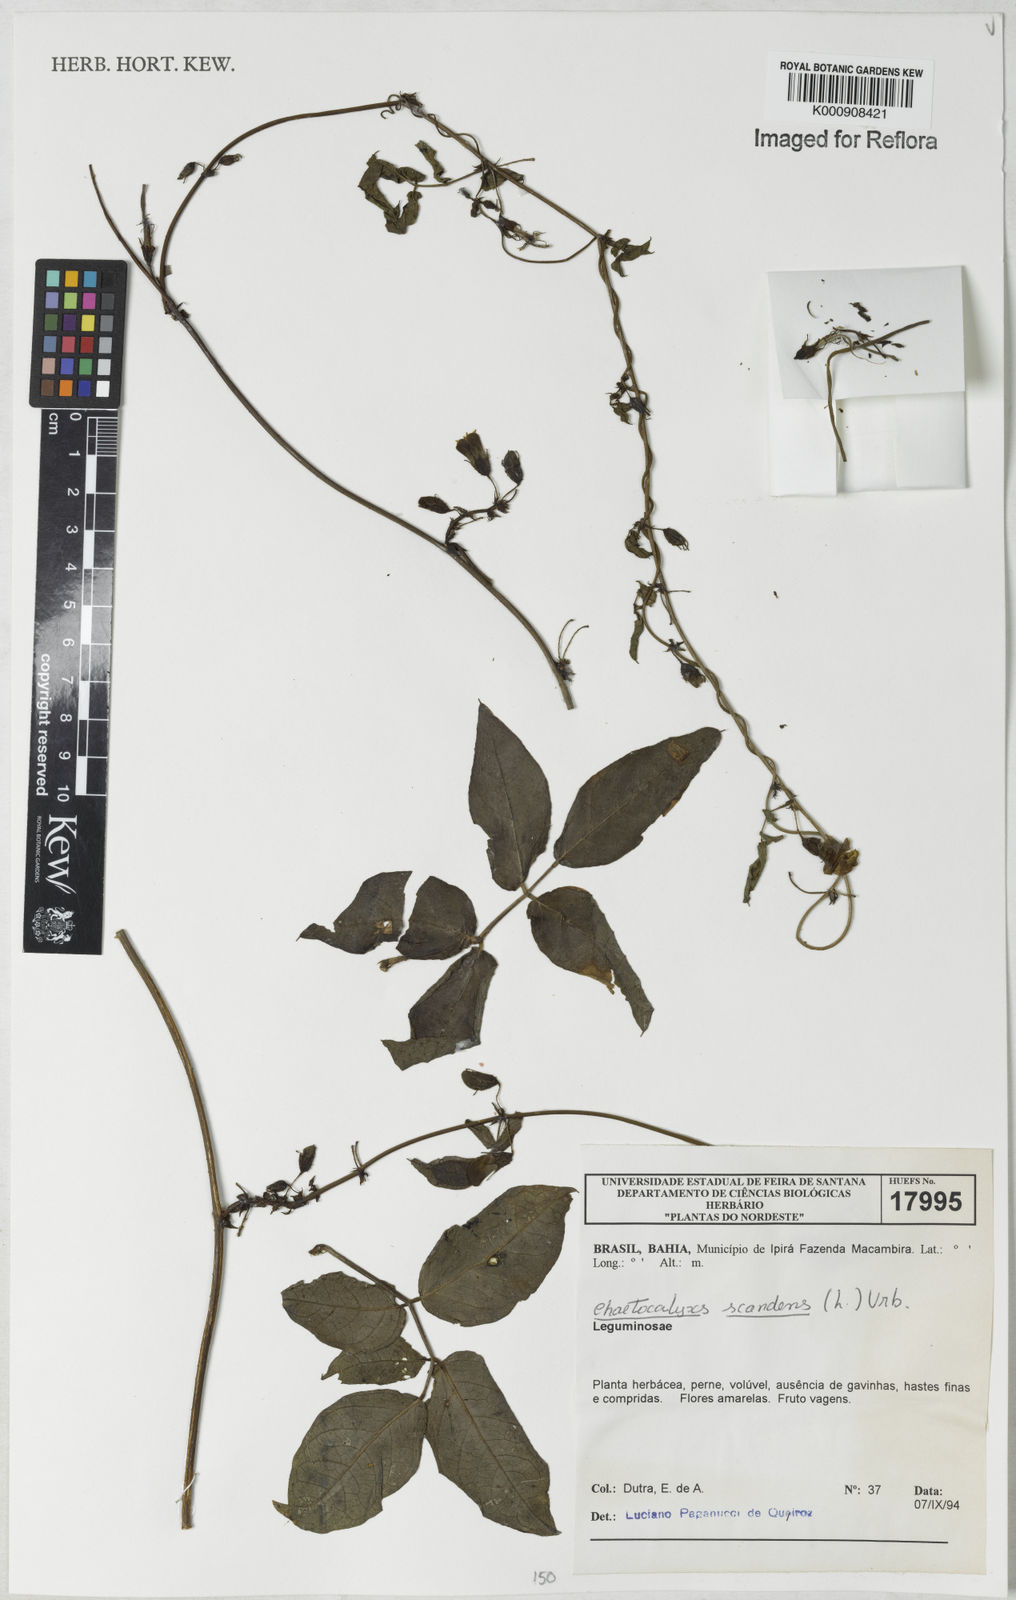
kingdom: Plantae
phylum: Tracheophyta
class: Magnoliopsida
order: Fabales
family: Fabaceae
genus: Nissolia
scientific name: Nissolia vincentina
